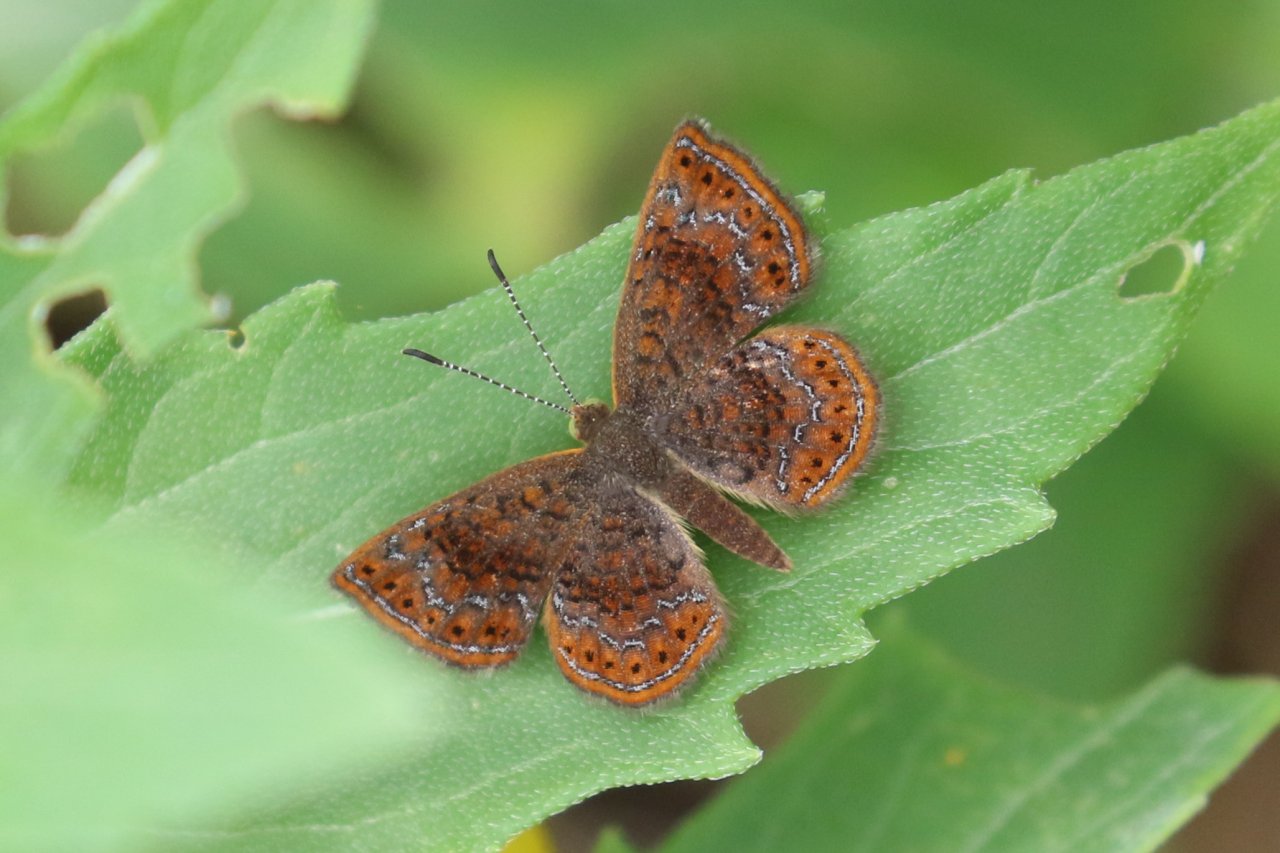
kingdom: Animalia
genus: Calephelis
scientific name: Calephelis perditalis
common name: Rounded Metalmark
